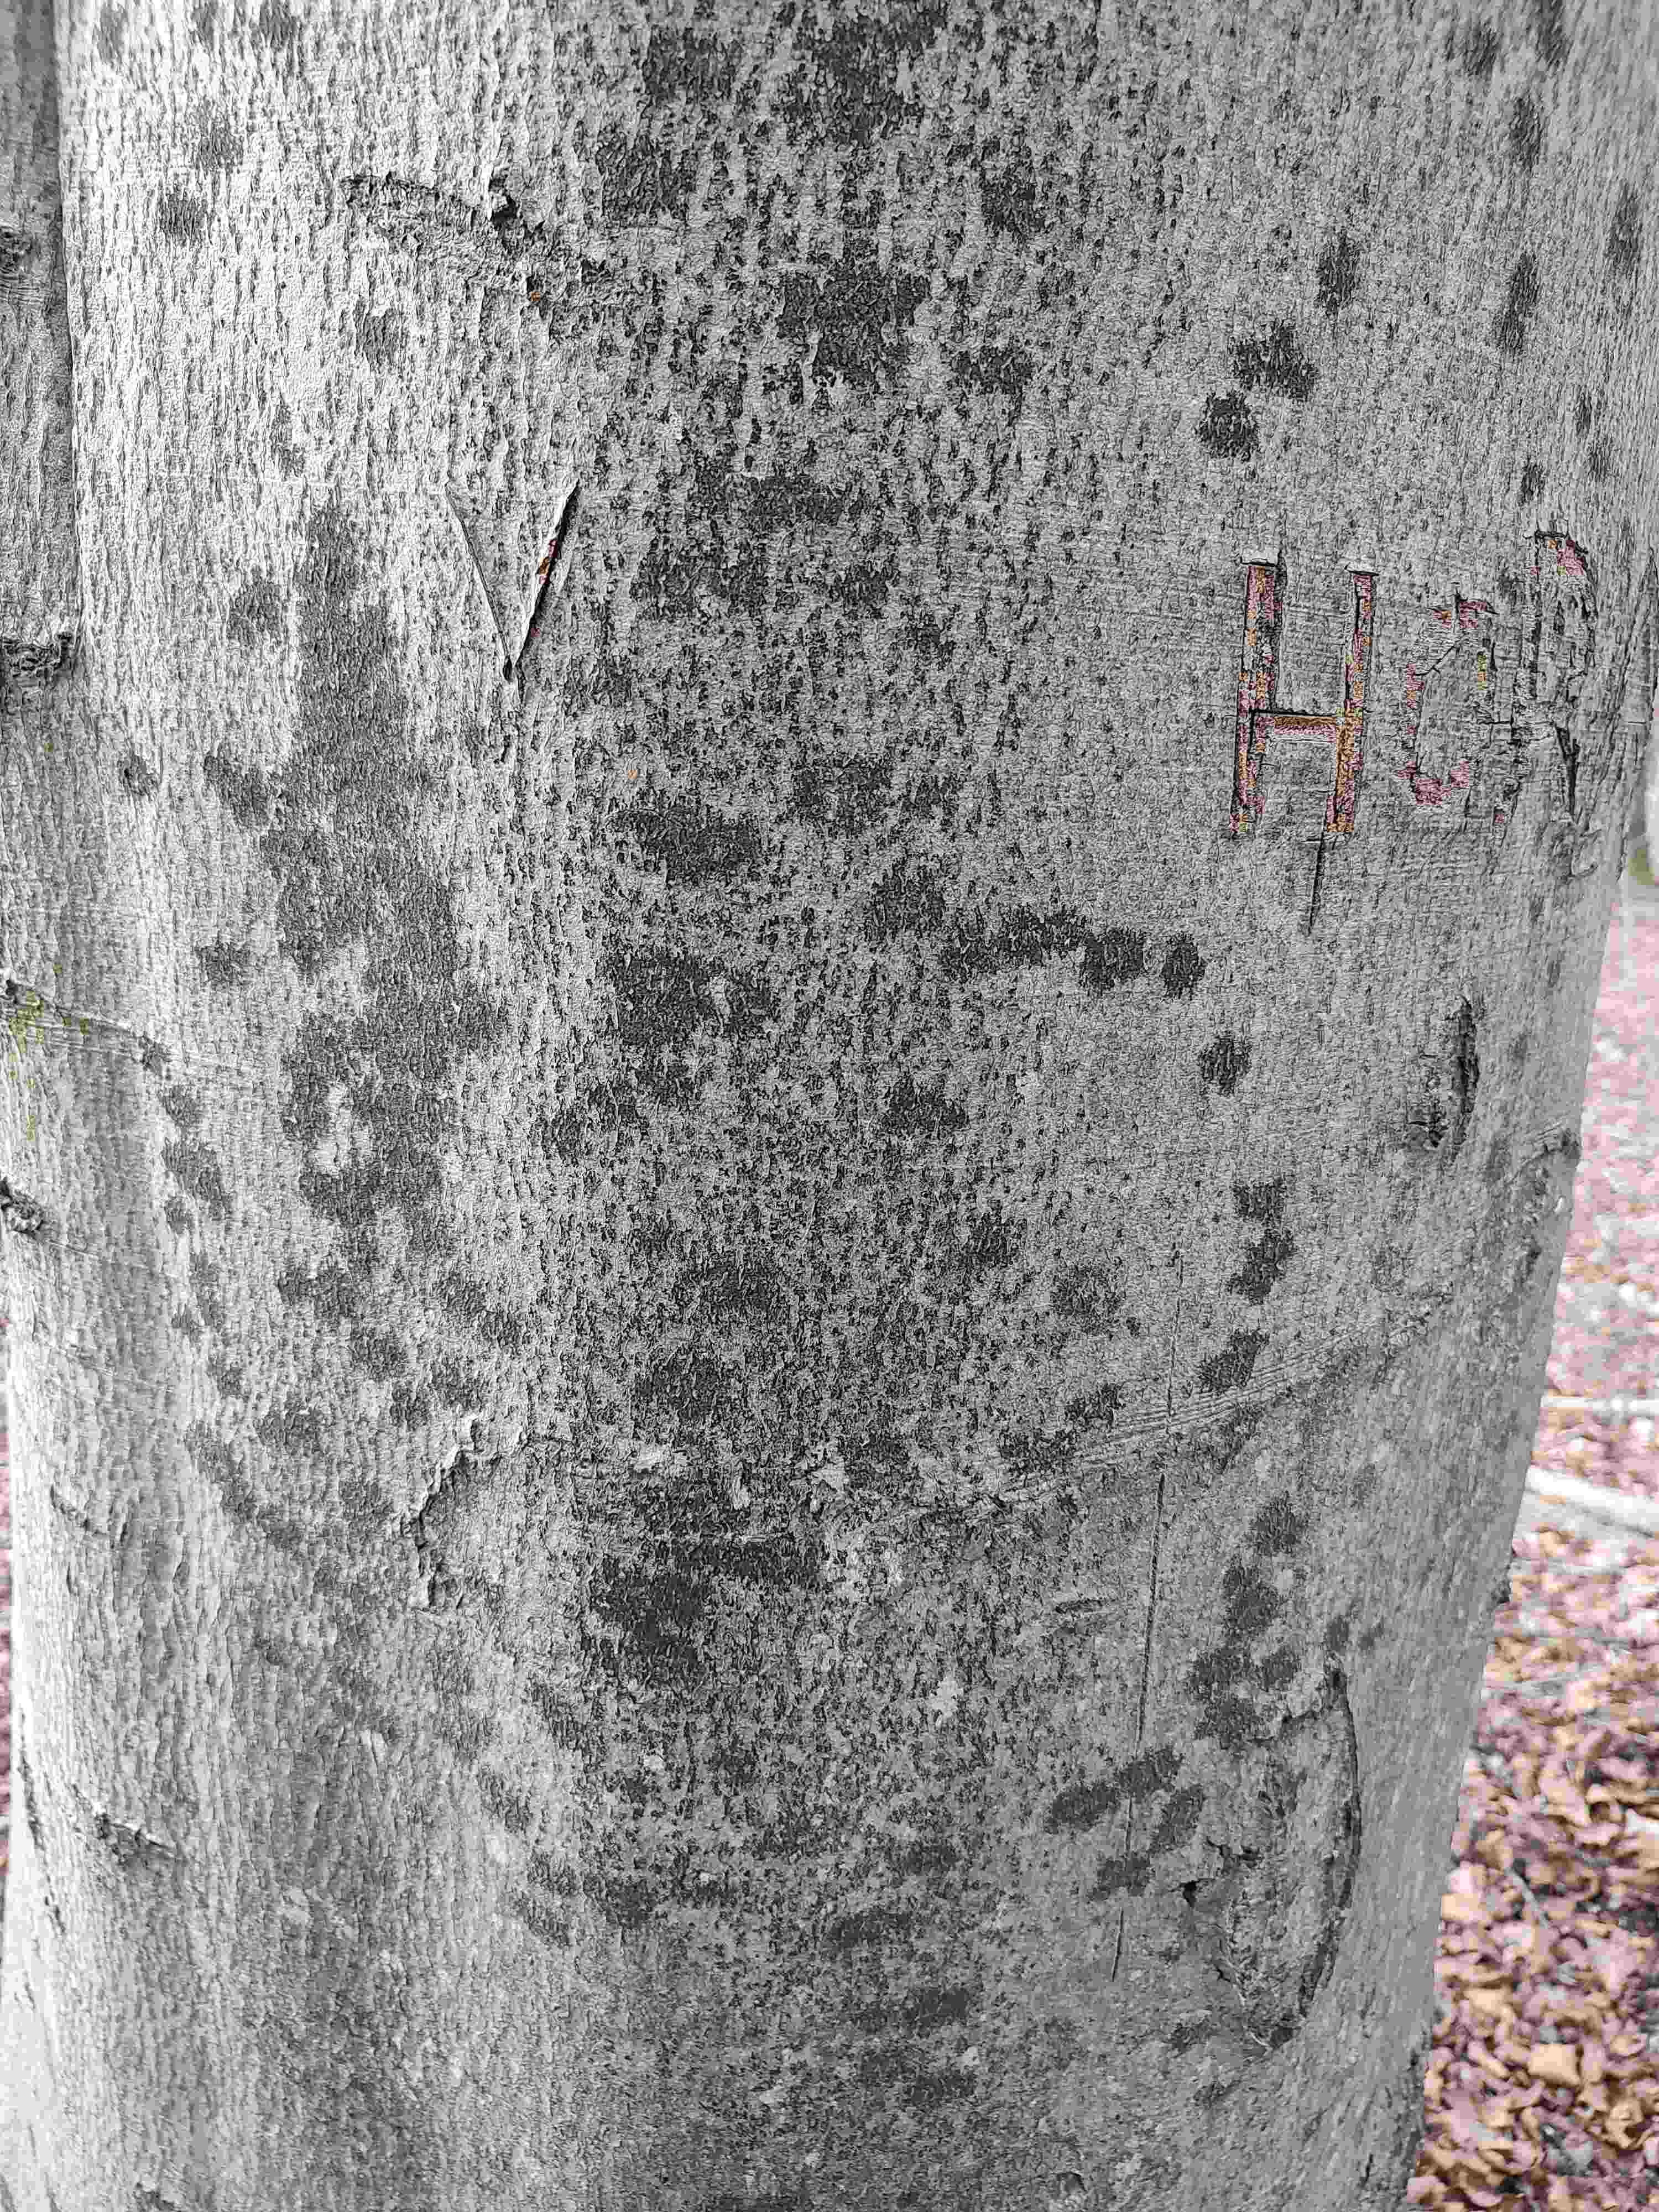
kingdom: Fungi
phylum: Ascomycota
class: Leotiomycetes
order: Rhytismatales
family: Ascodichaenaceae
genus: Ascodichaena
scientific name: Ascodichaena rugosa
